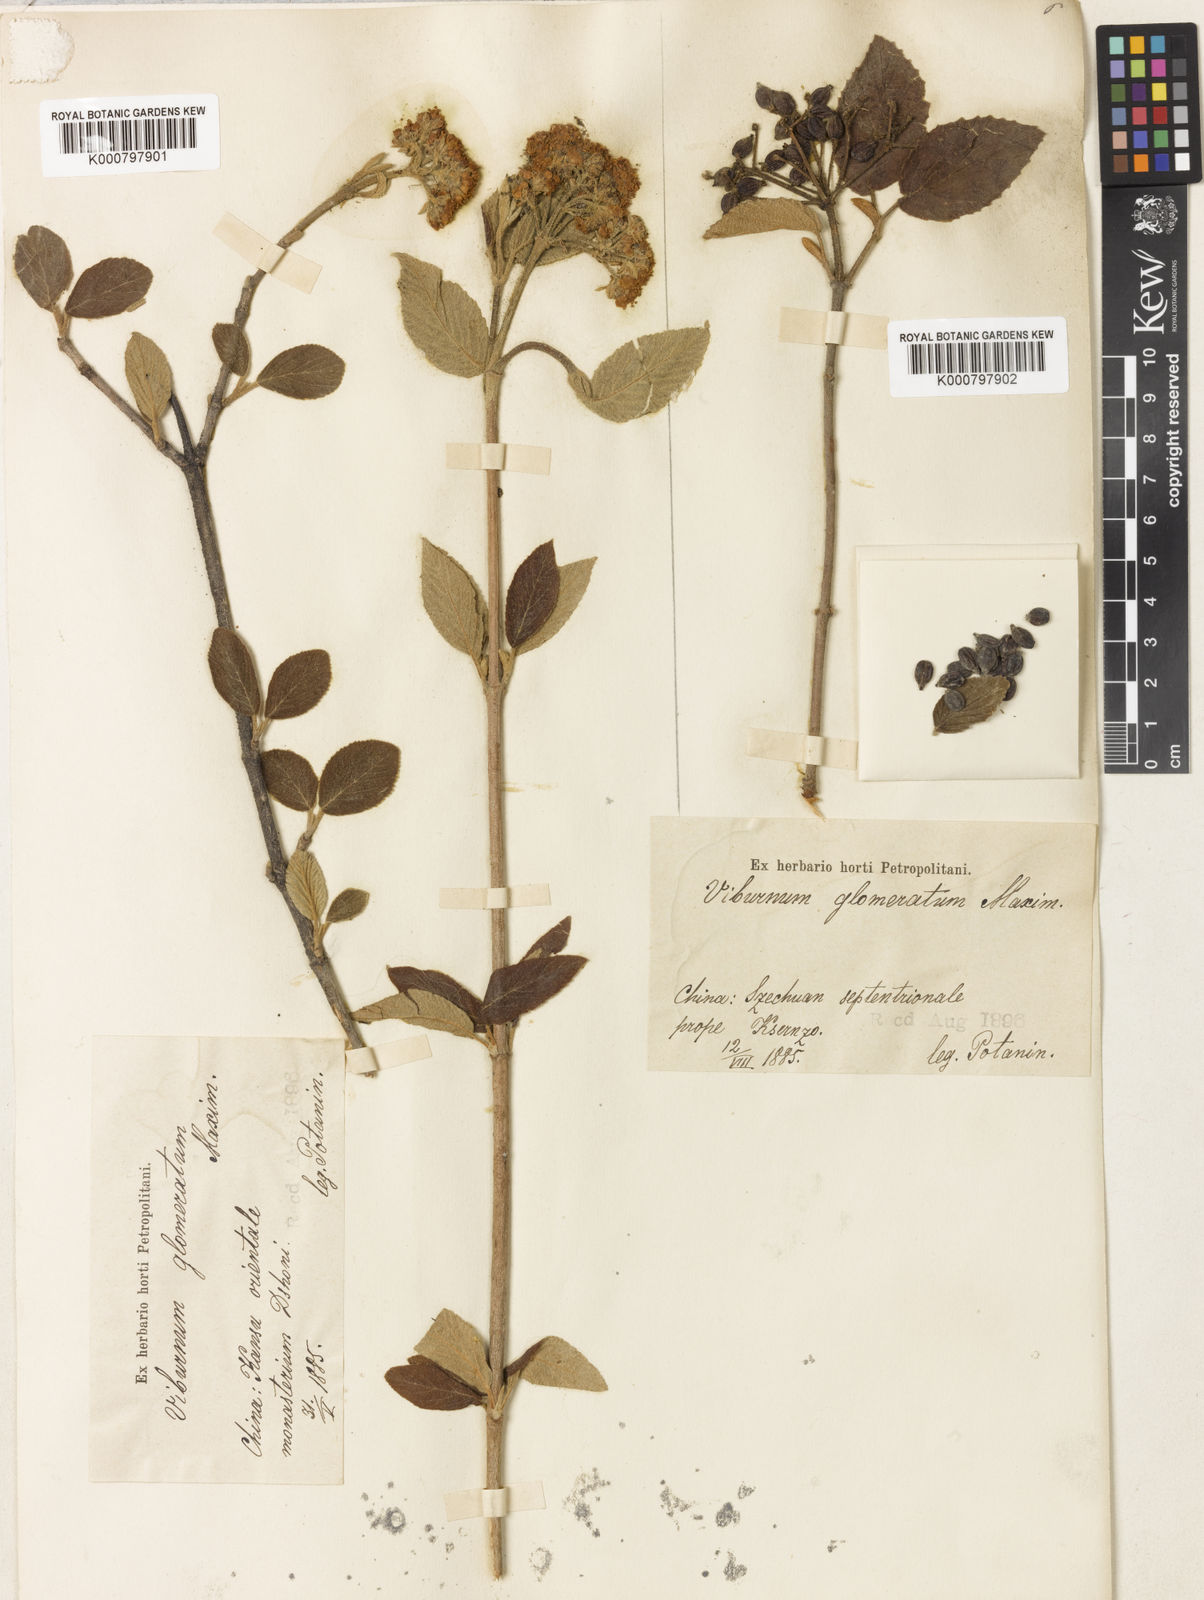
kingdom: Plantae
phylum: Tracheophyta
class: Magnoliopsida
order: Dipsacales
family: Viburnaceae
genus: Viburnum
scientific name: Viburnum glomeratum
